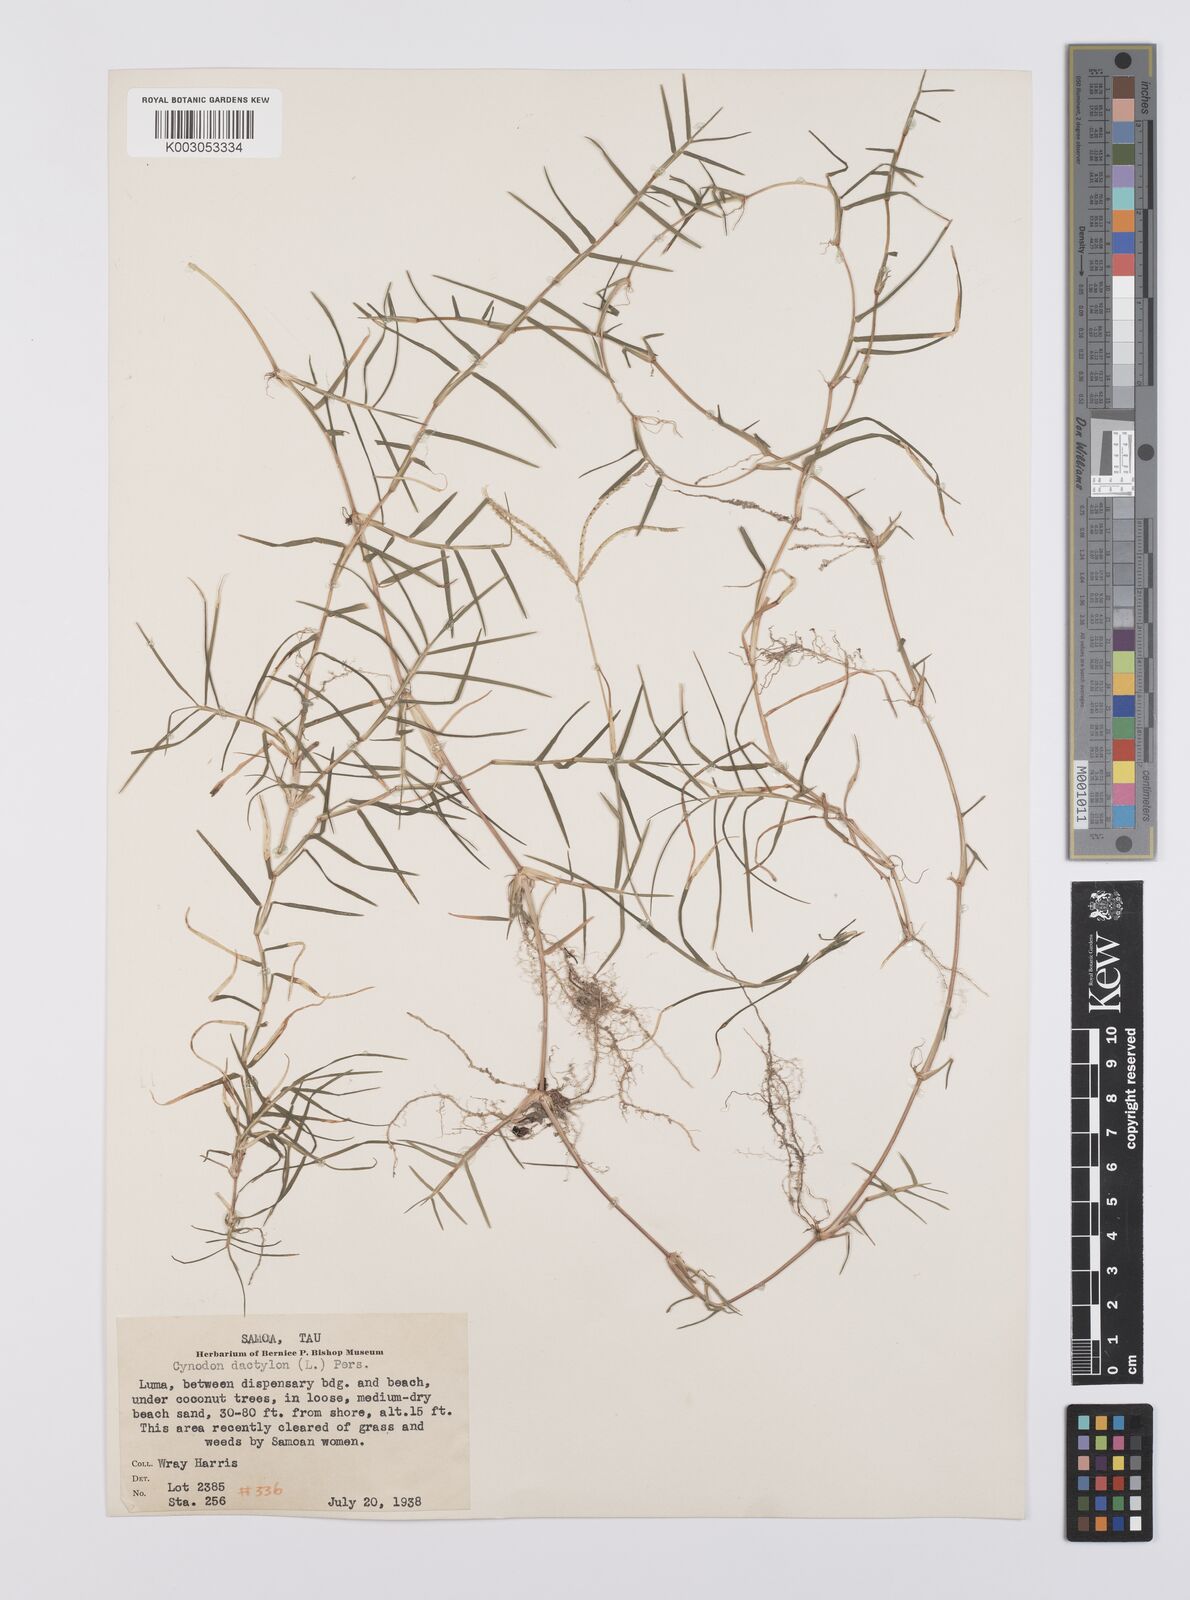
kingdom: Plantae
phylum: Tracheophyta
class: Liliopsida
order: Poales
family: Poaceae
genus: Cynodon
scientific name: Cynodon dactylon
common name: Bermuda grass
